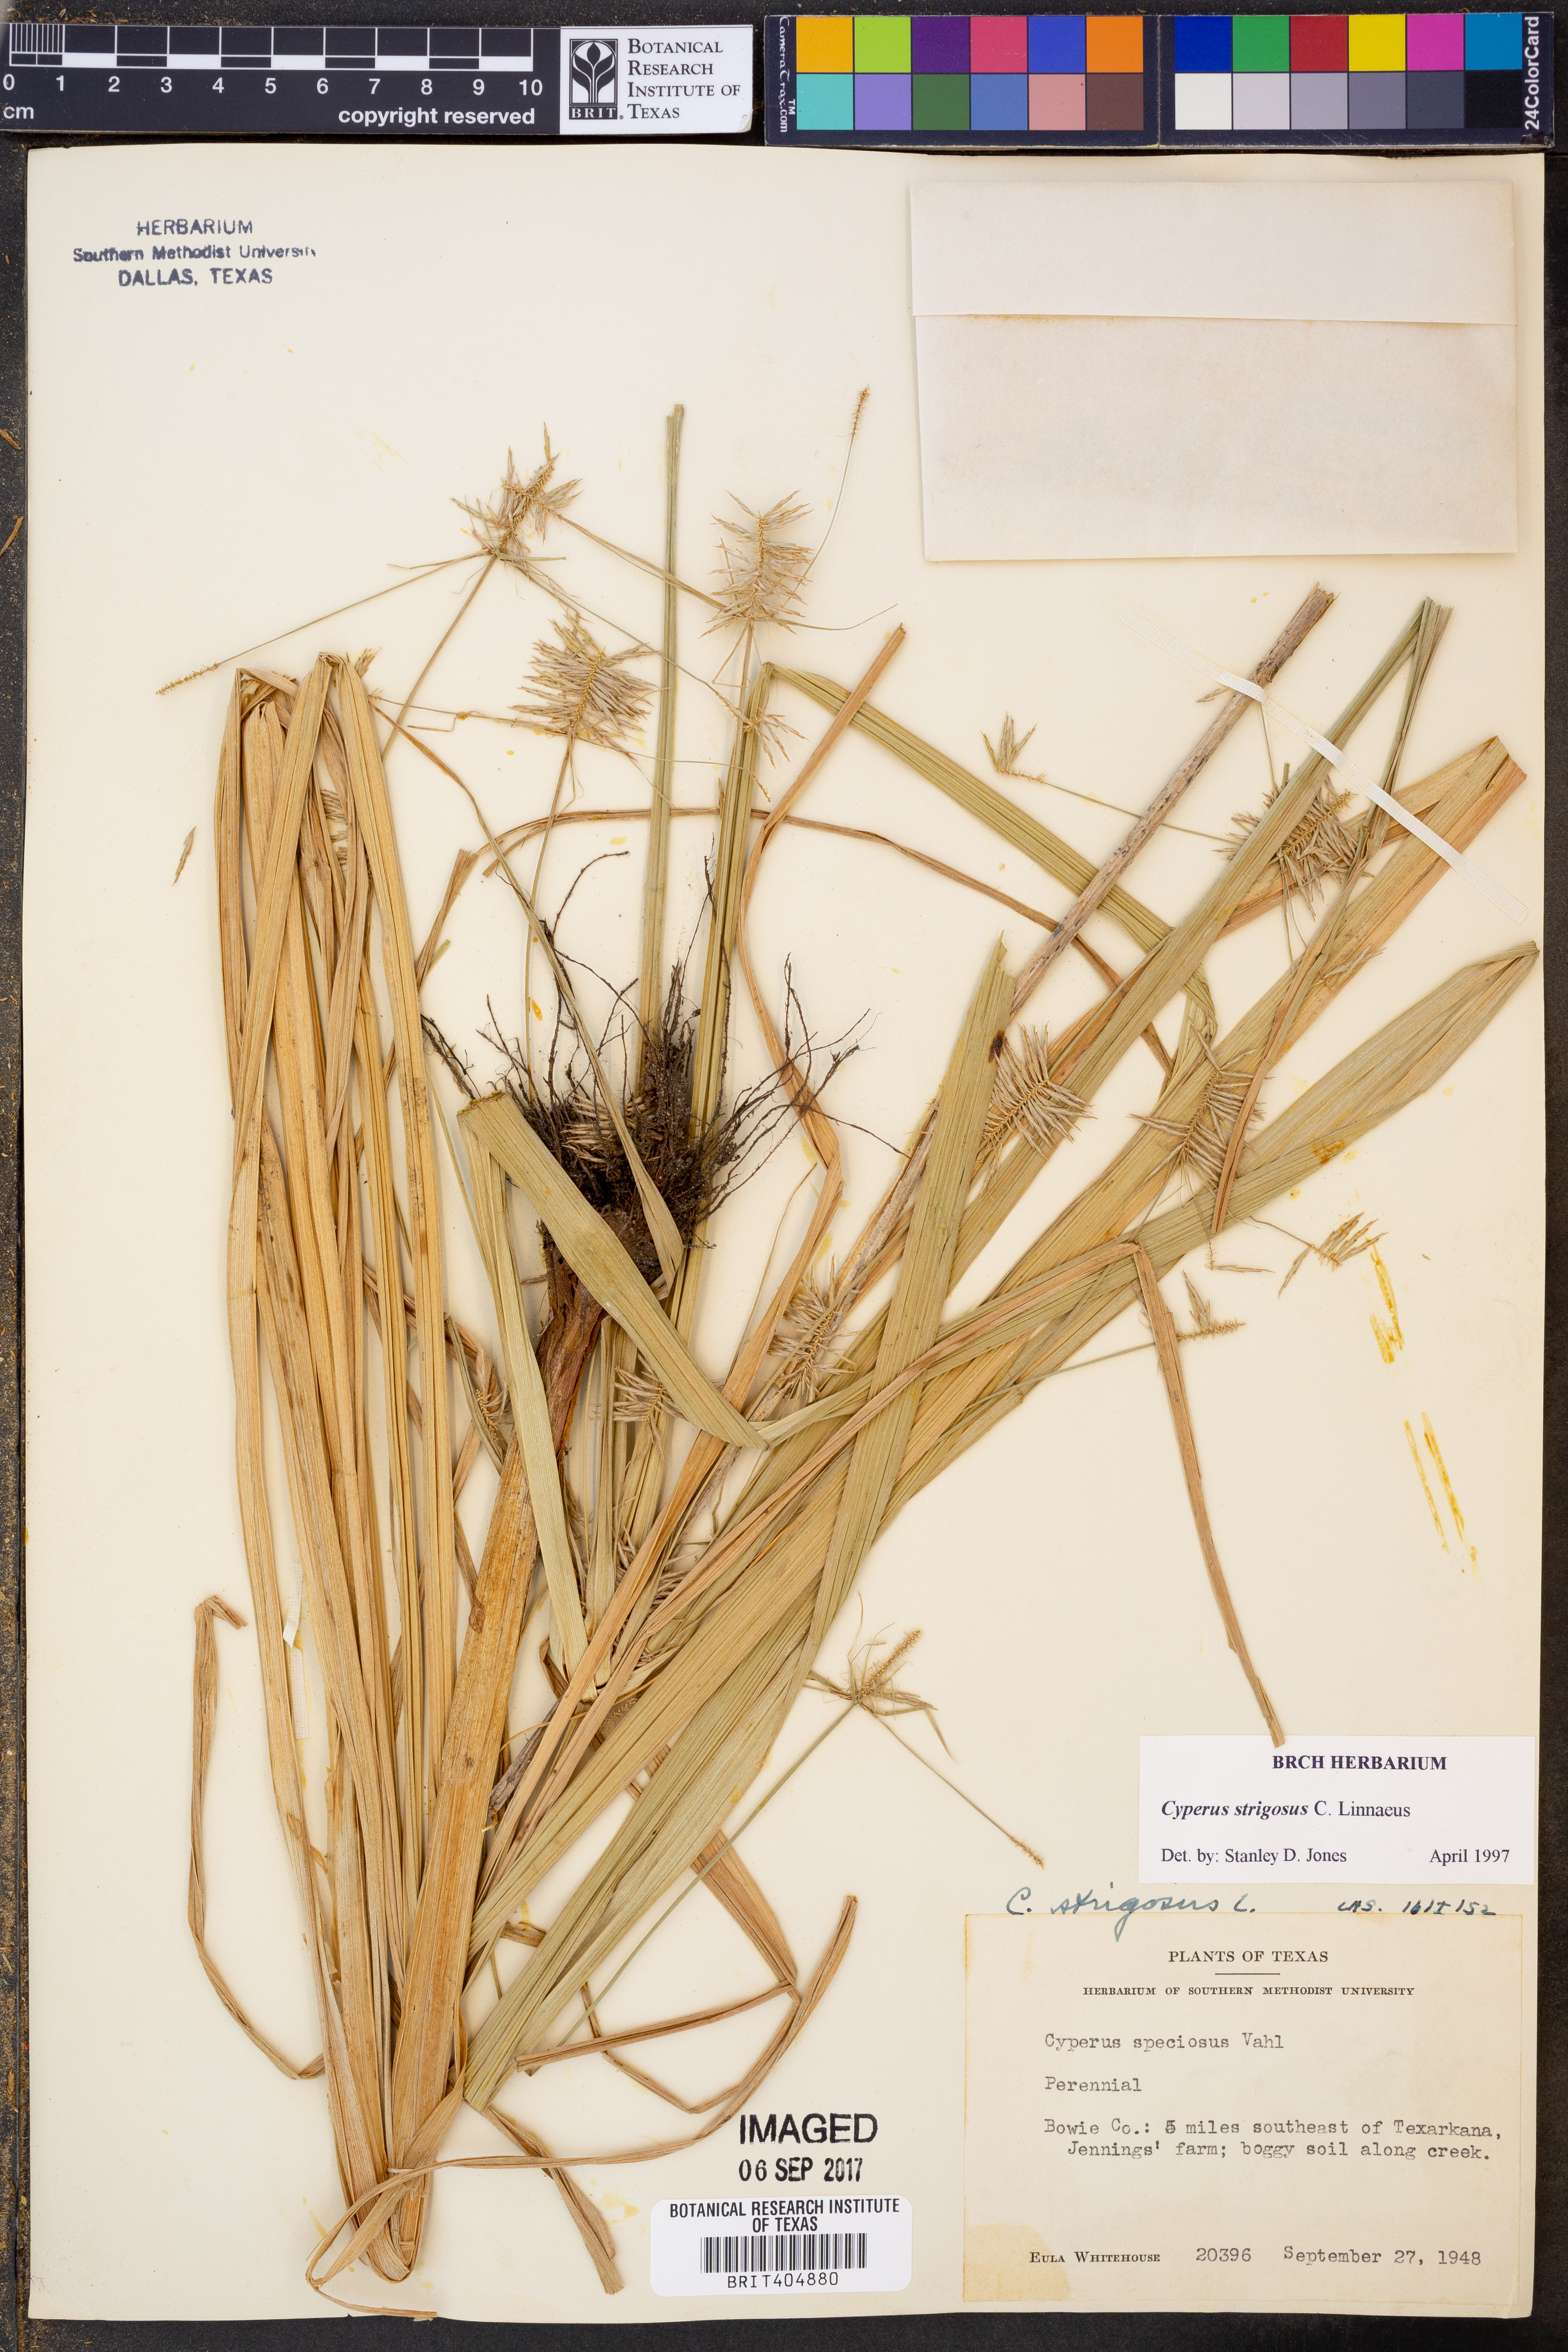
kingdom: Plantae
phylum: Tracheophyta
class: Liliopsida
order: Poales
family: Cyperaceae
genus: Cyperus
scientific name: Cyperus strigosus
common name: False nutsedge
